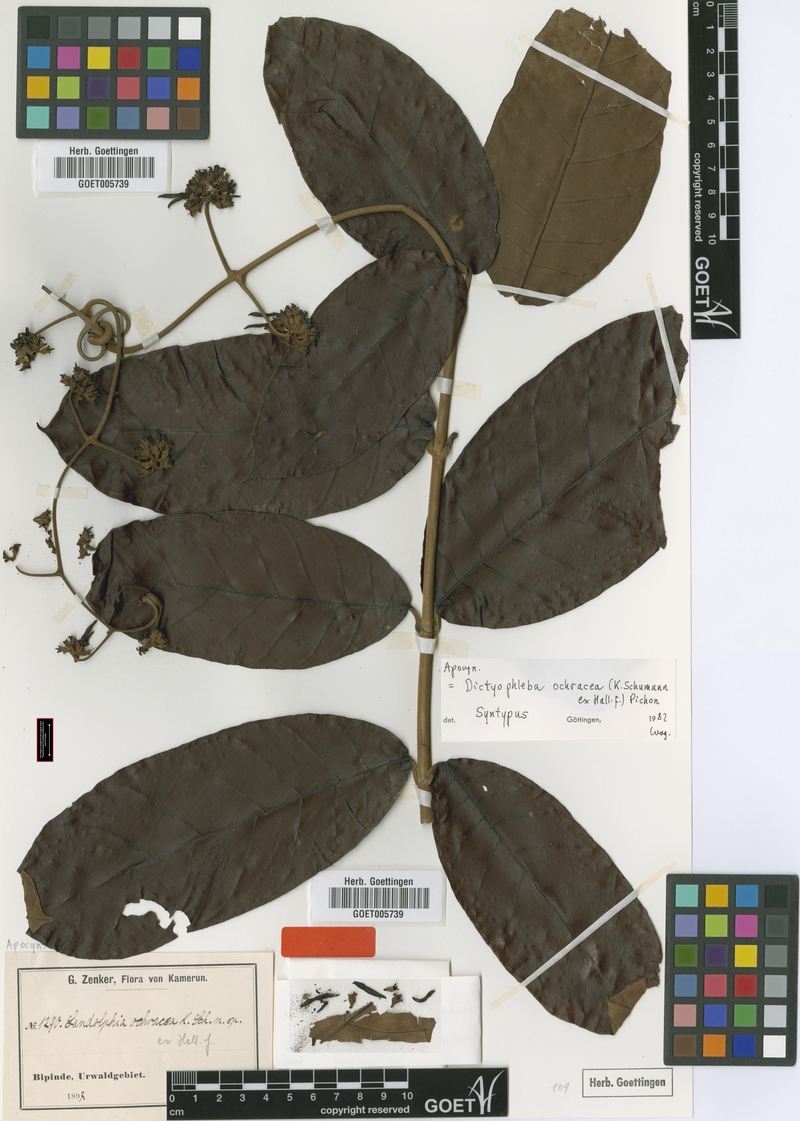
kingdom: Plantae
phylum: Tracheophyta
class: Magnoliopsida
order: Gentianales
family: Apocynaceae
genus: Dictyophleba
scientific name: Dictyophleba ochracea
